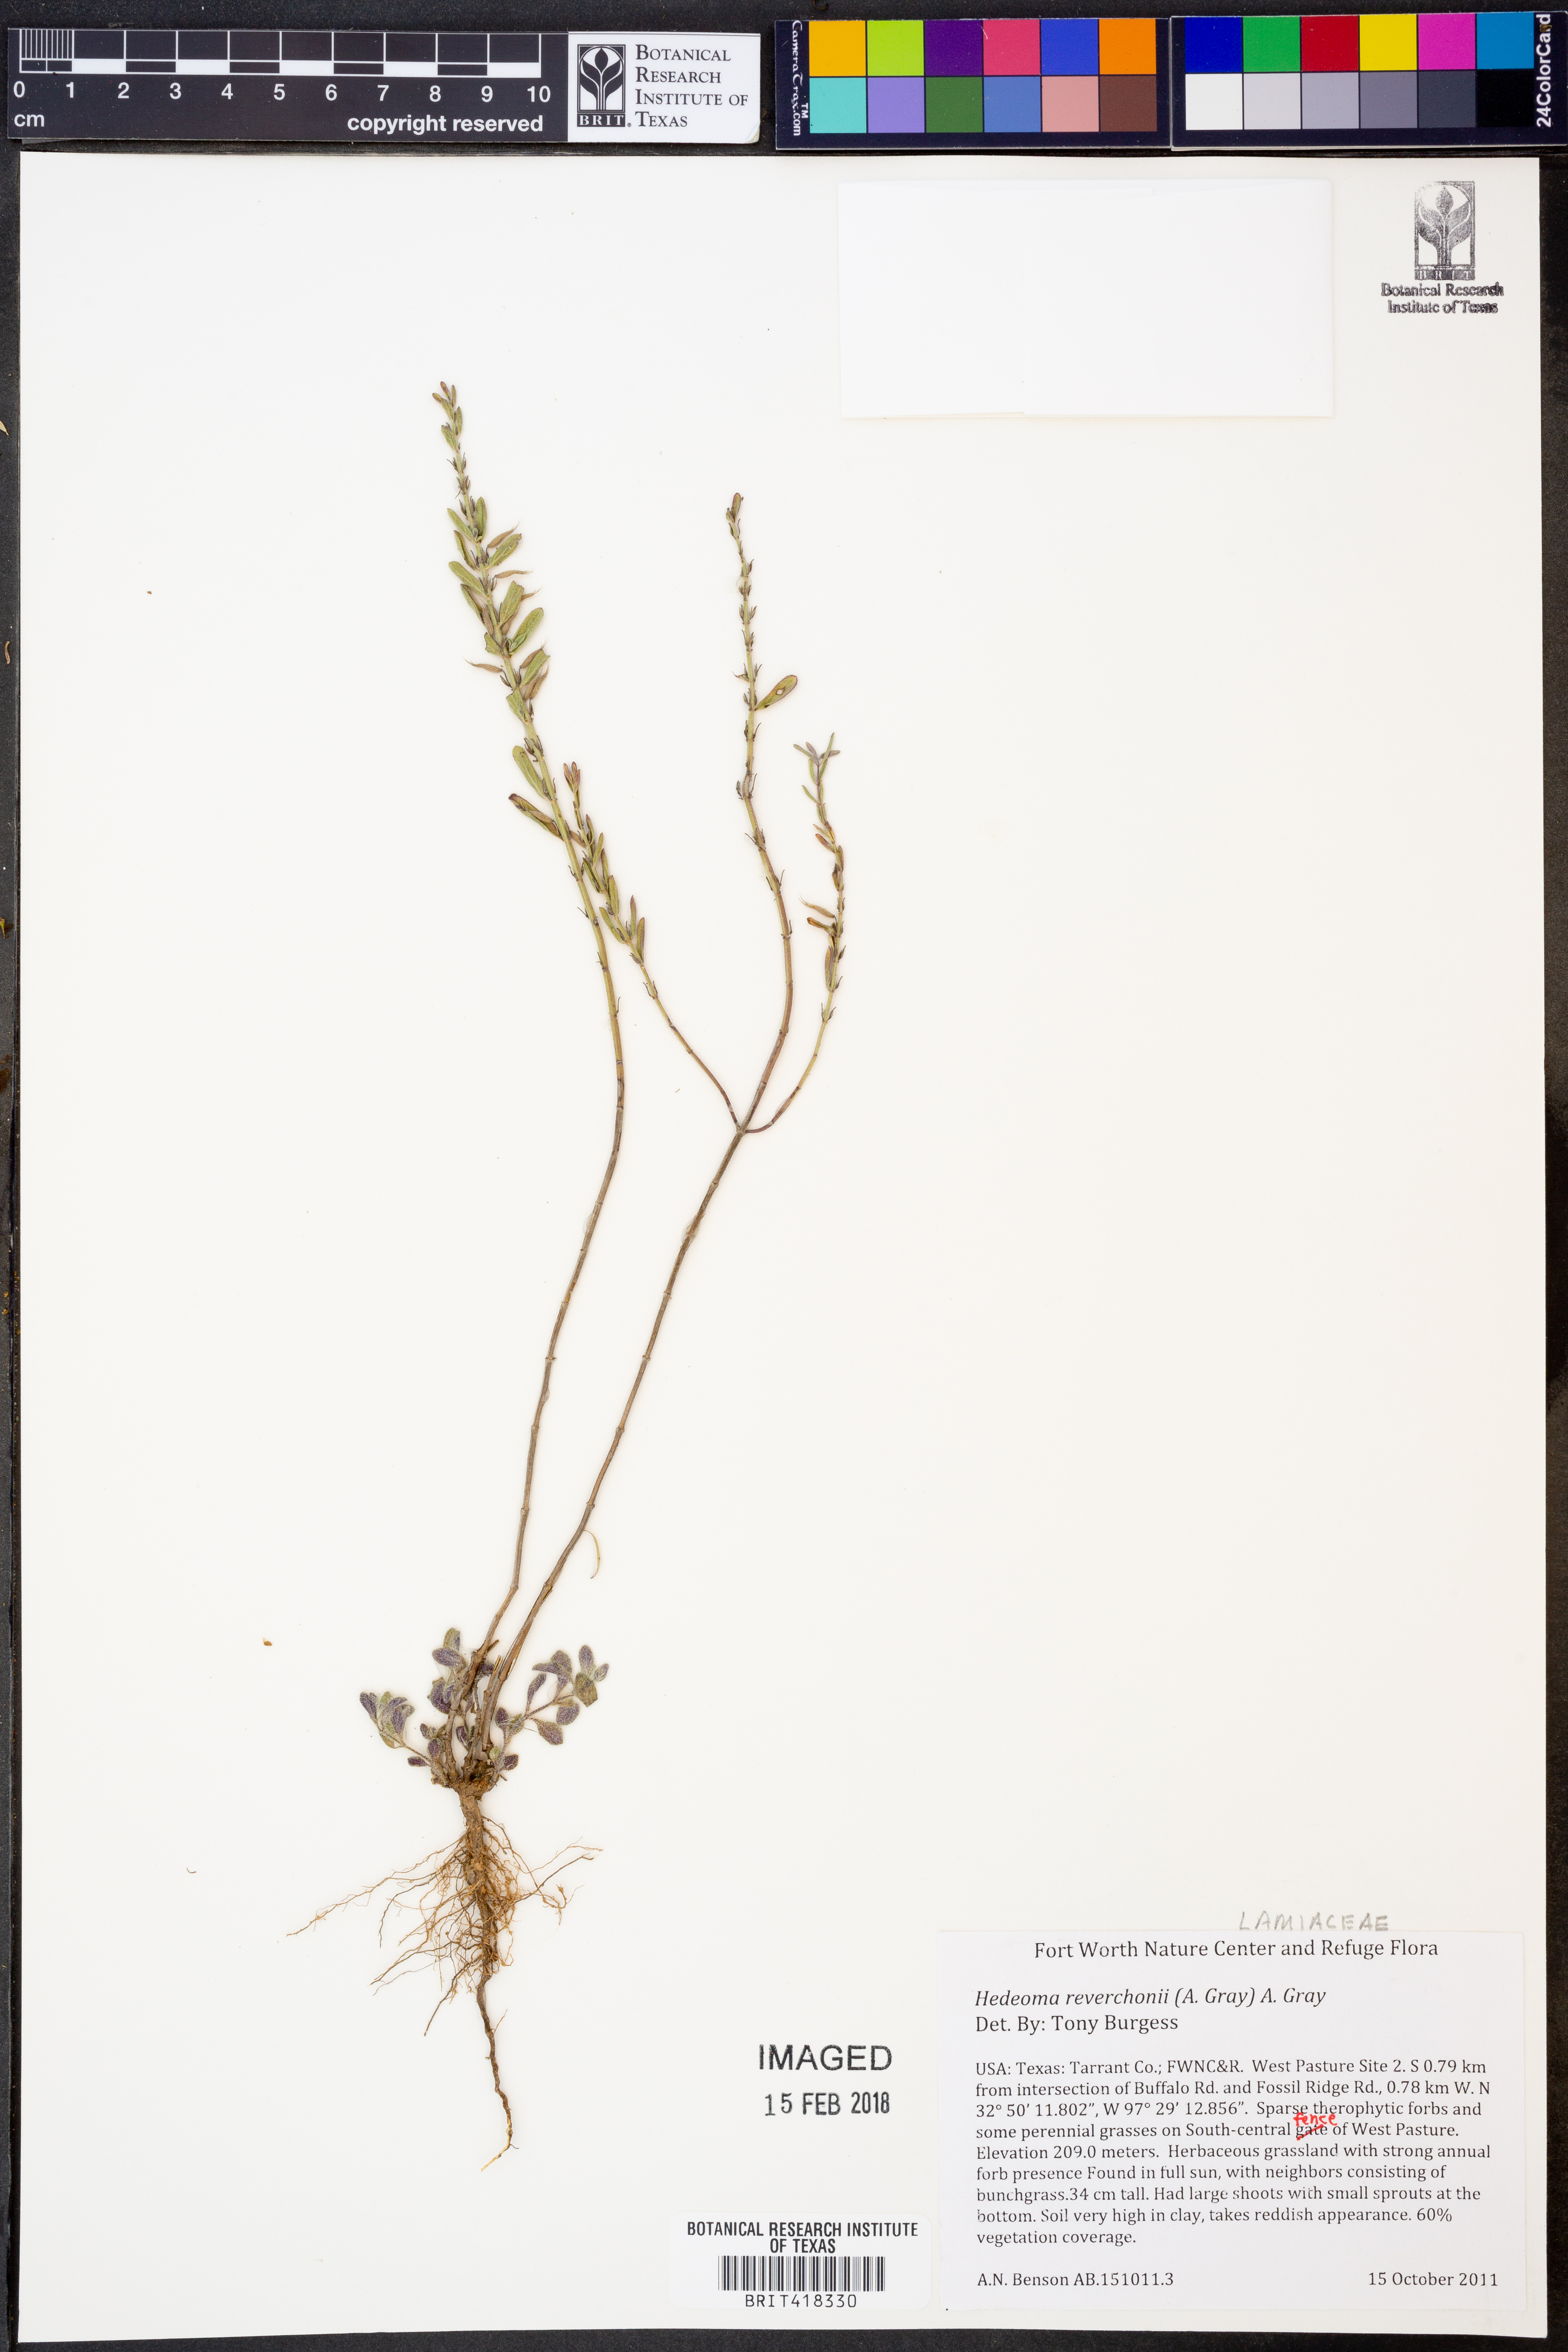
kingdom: Plantae
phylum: Tracheophyta
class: Magnoliopsida
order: Lamiales
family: Lamiaceae
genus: Hedeoma
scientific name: Hedeoma reverchonii
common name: Reverchon's false penny-royal
